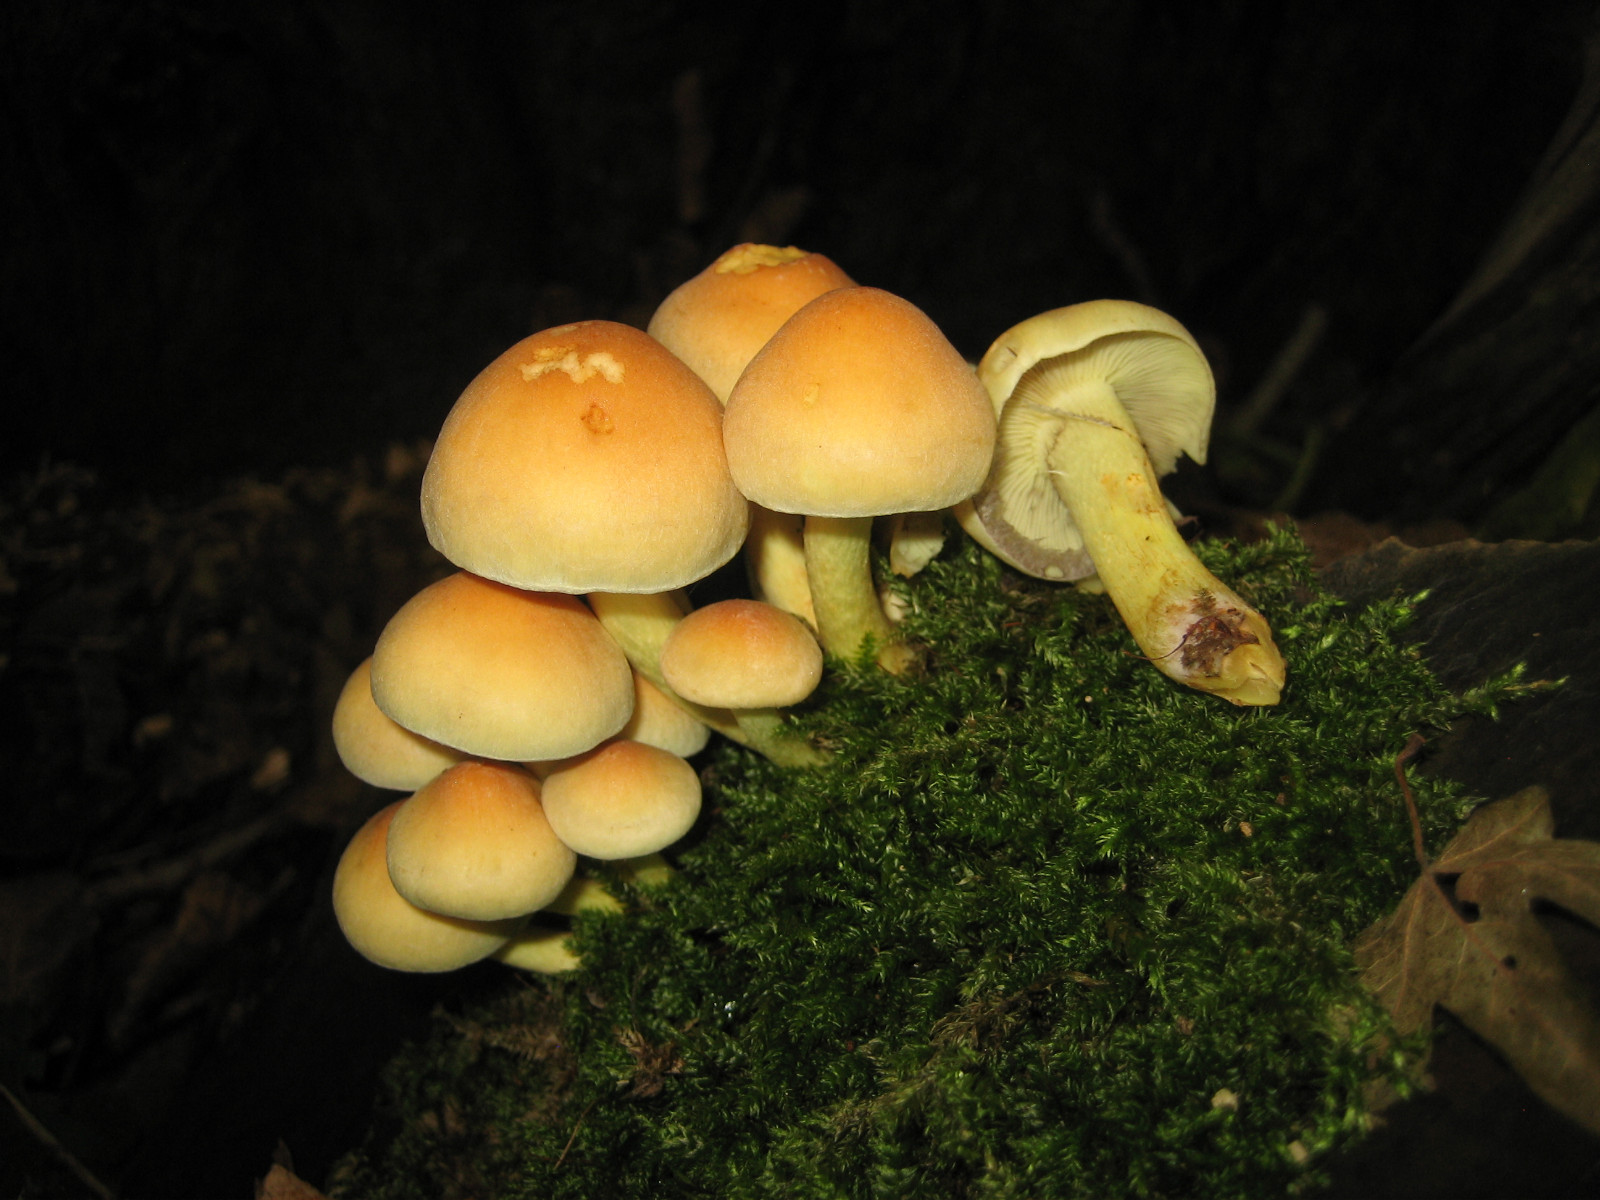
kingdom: Fungi
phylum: Basidiomycota
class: Agaricomycetes
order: Agaricales
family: Strophariaceae
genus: Hypholoma
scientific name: Hypholoma fasciculare
